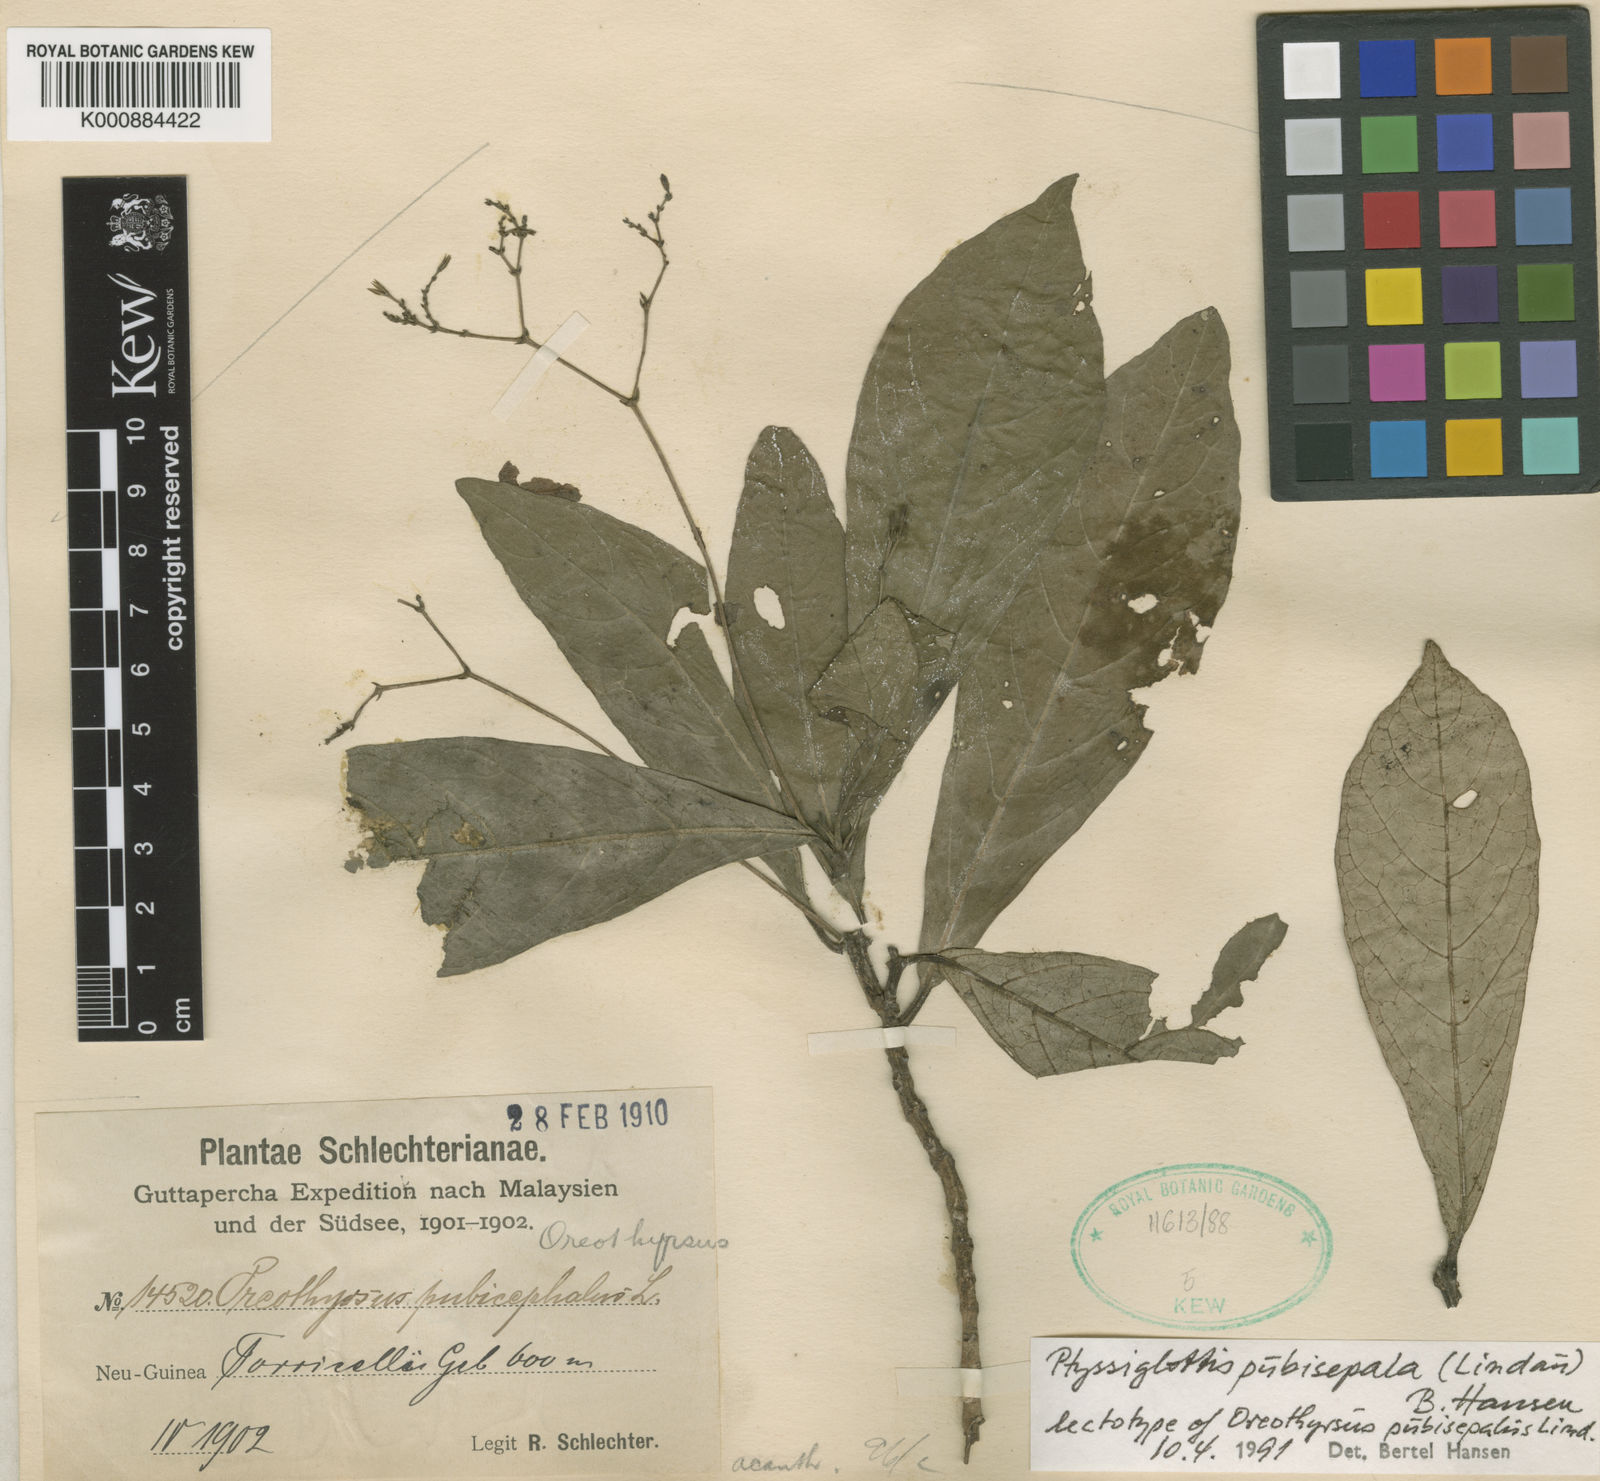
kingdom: Plantae
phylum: Tracheophyta
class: Magnoliopsida
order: Lamiales
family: Acanthaceae
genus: Ptyssiglottis
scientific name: Ptyssiglottis pubisepala
